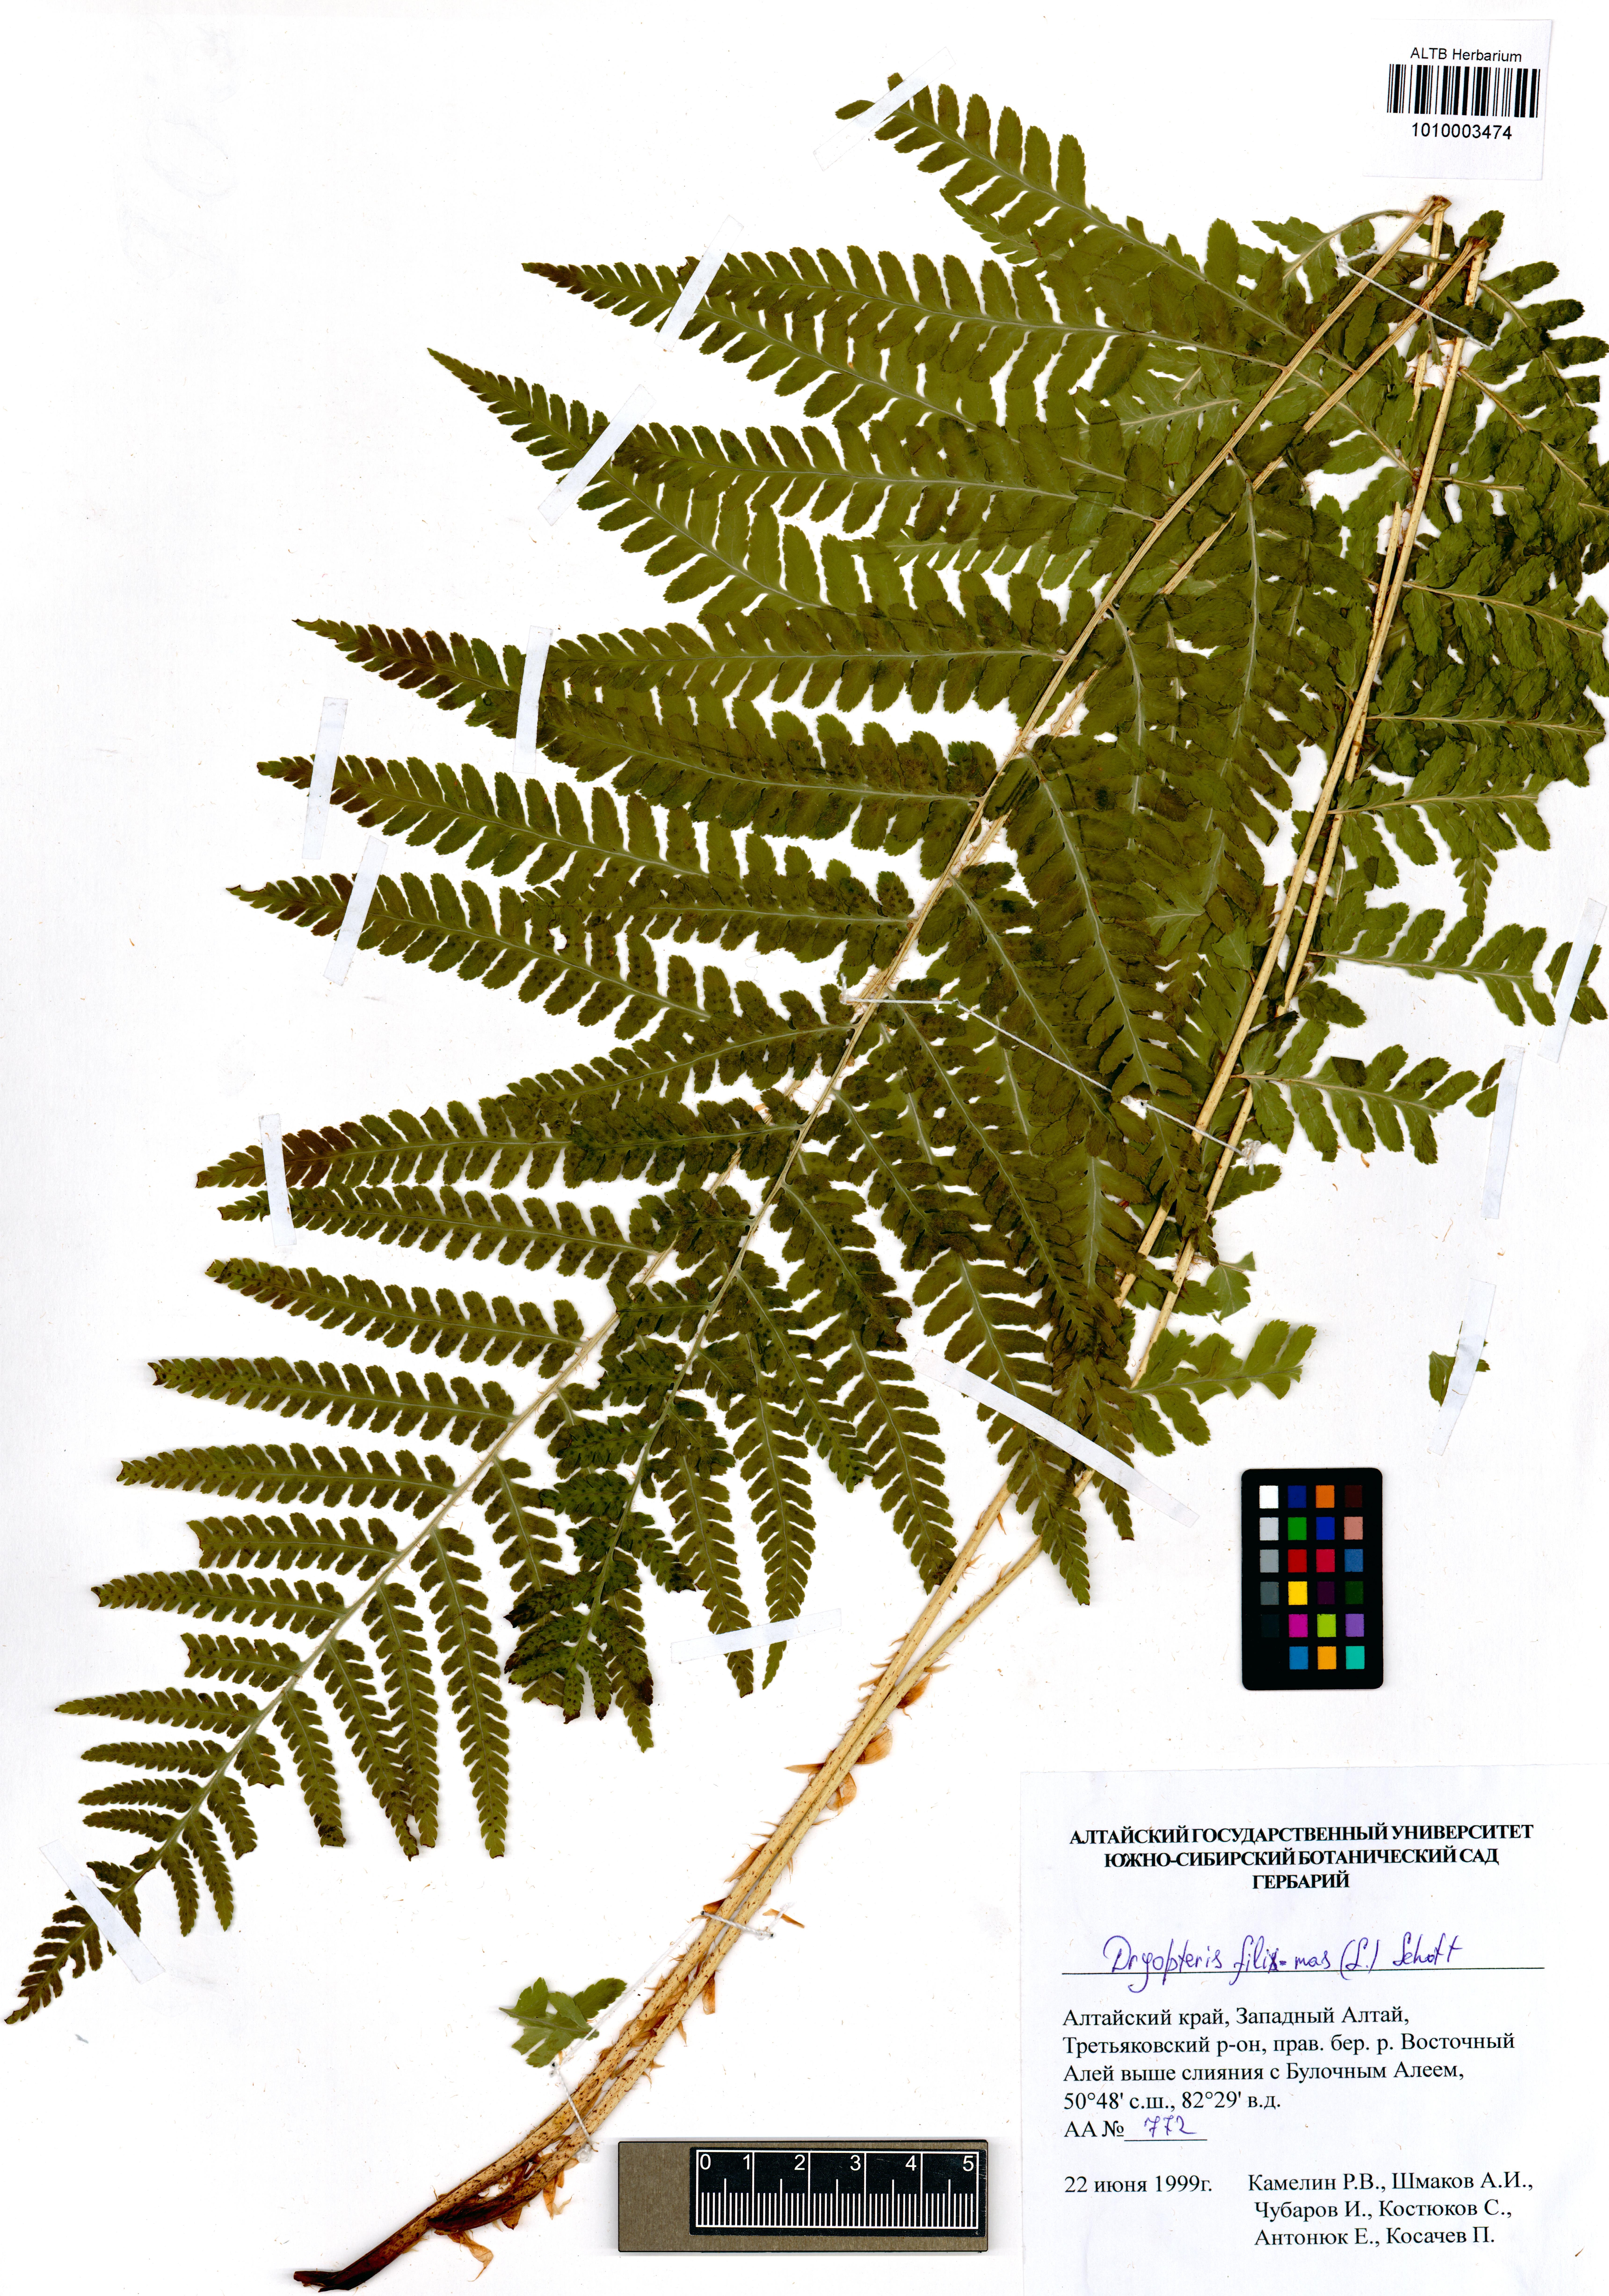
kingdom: Plantae
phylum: Tracheophyta
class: Polypodiopsida
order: Polypodiales
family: Dryopteridaceae
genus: Dryopteris
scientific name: Dryopteris filix-mas
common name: Male fern
